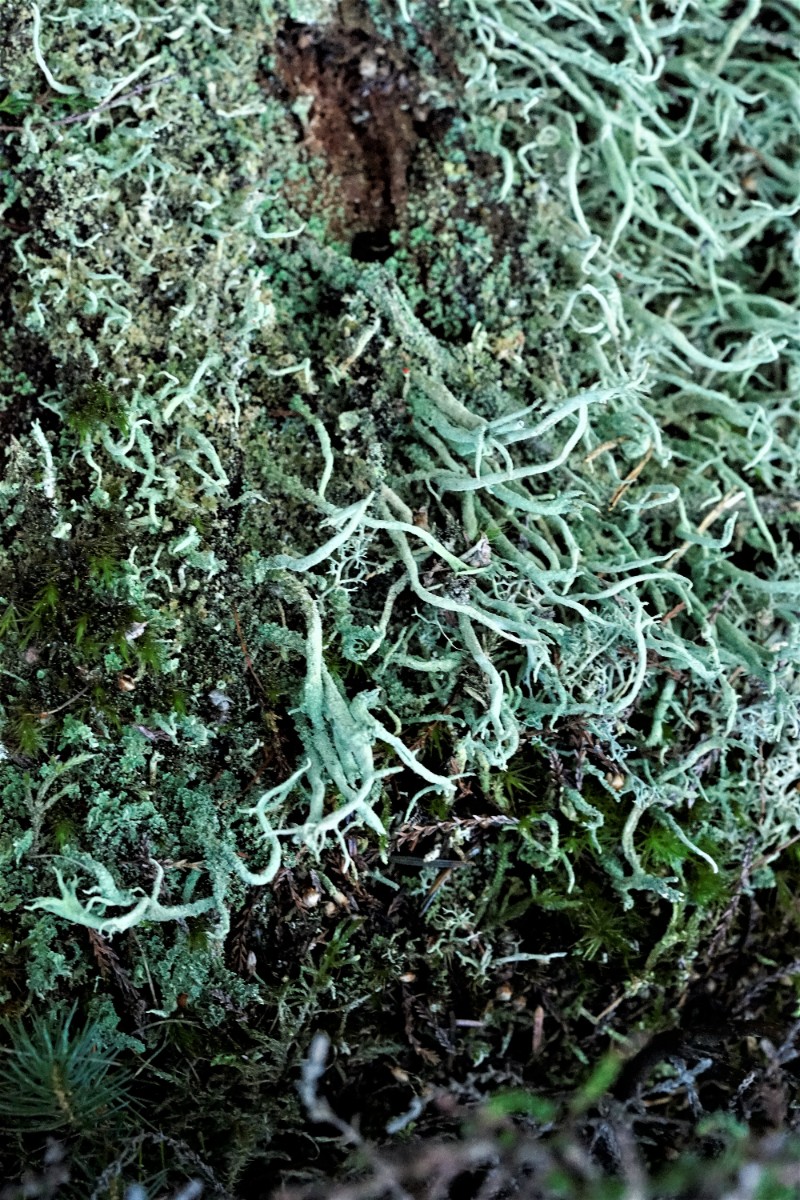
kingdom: Fungi
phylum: Ascomycota
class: Lecanoromycetes
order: Lecanorales
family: Cladoniaceae
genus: Cladonia
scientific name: Cladonia furcata
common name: kløftet bægerlav
